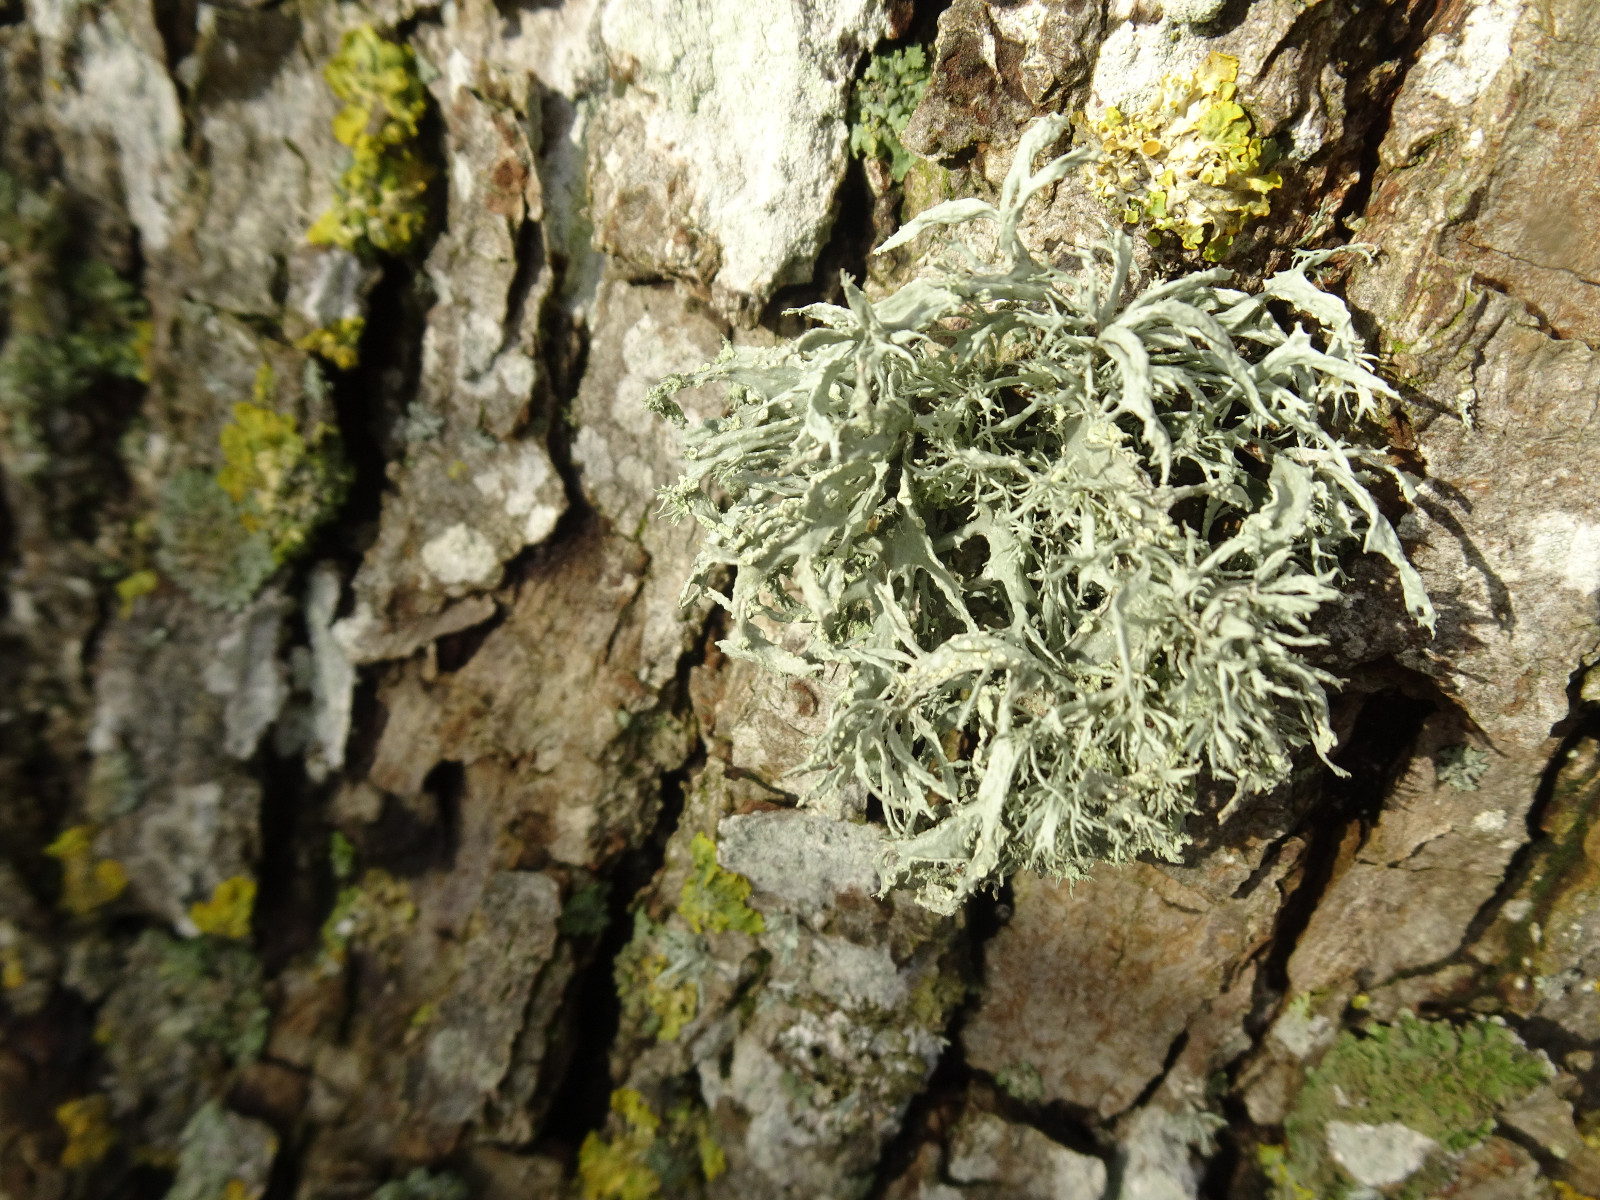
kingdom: Fungi
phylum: Ascomycota
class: Lecanoromycetes
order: Lecanorales
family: Ramalinaceae
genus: Ramalina
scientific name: Ramalina farinacea
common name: melet grenlav
